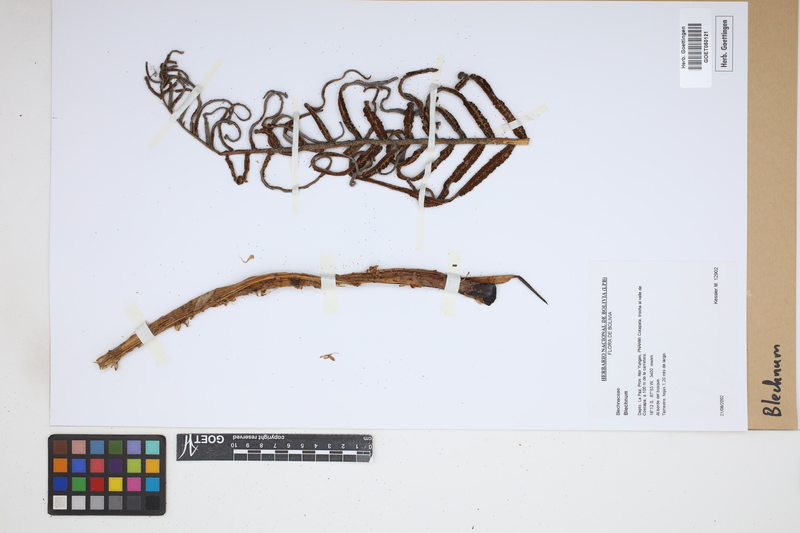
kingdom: Plantae
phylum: Tracheophyta
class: Polypodiopsida
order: Polypodiales
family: Blechnaceae
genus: Blechnum
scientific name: Blechnum
